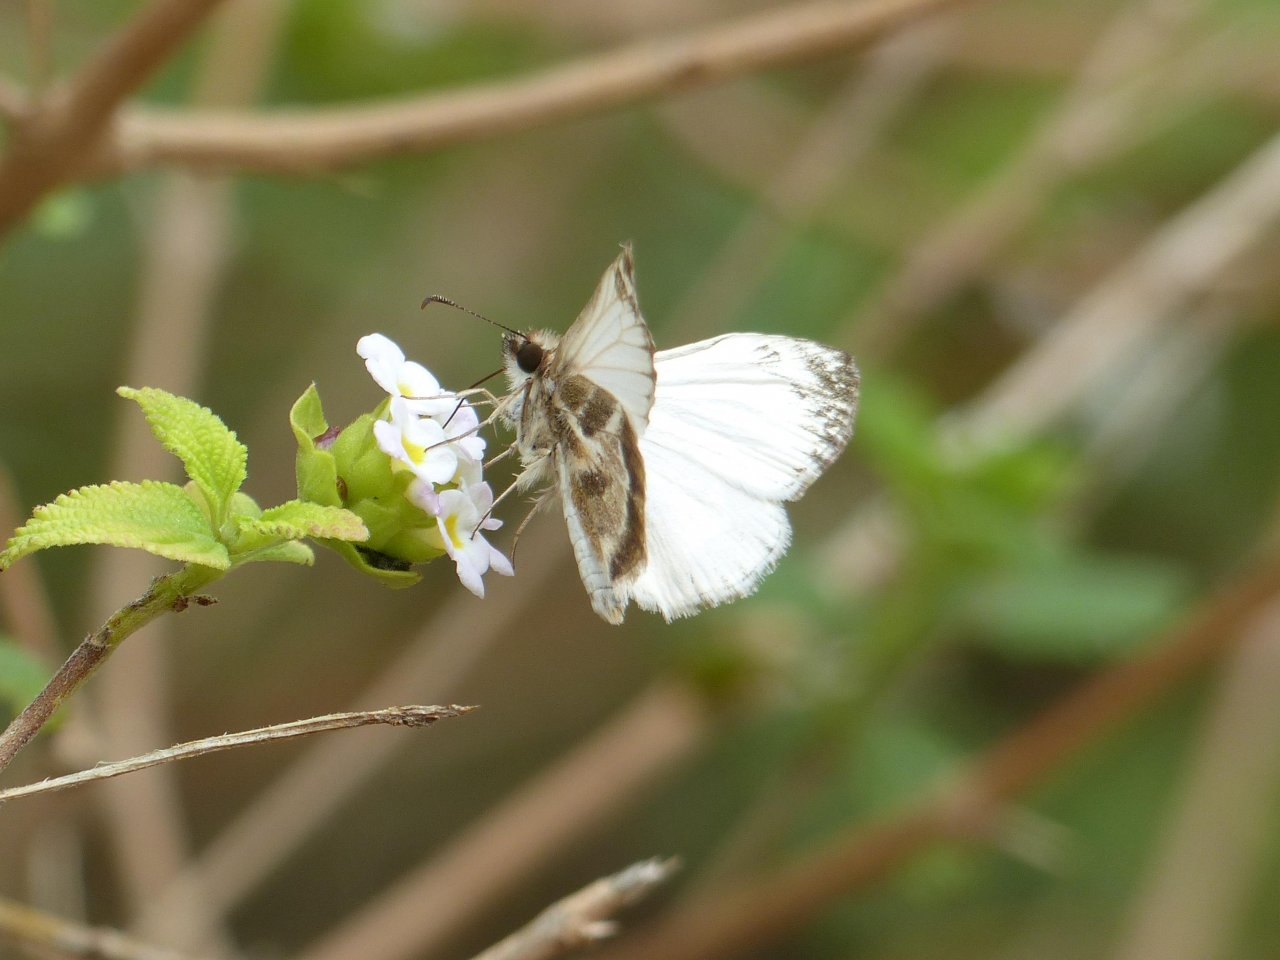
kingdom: Animalia
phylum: Arthropoda
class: Insecta
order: Lepidoptera
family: Hesperiidae
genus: Heliopetes
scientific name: Heliopetes macaira
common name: Turk's-cap White-Skipper
